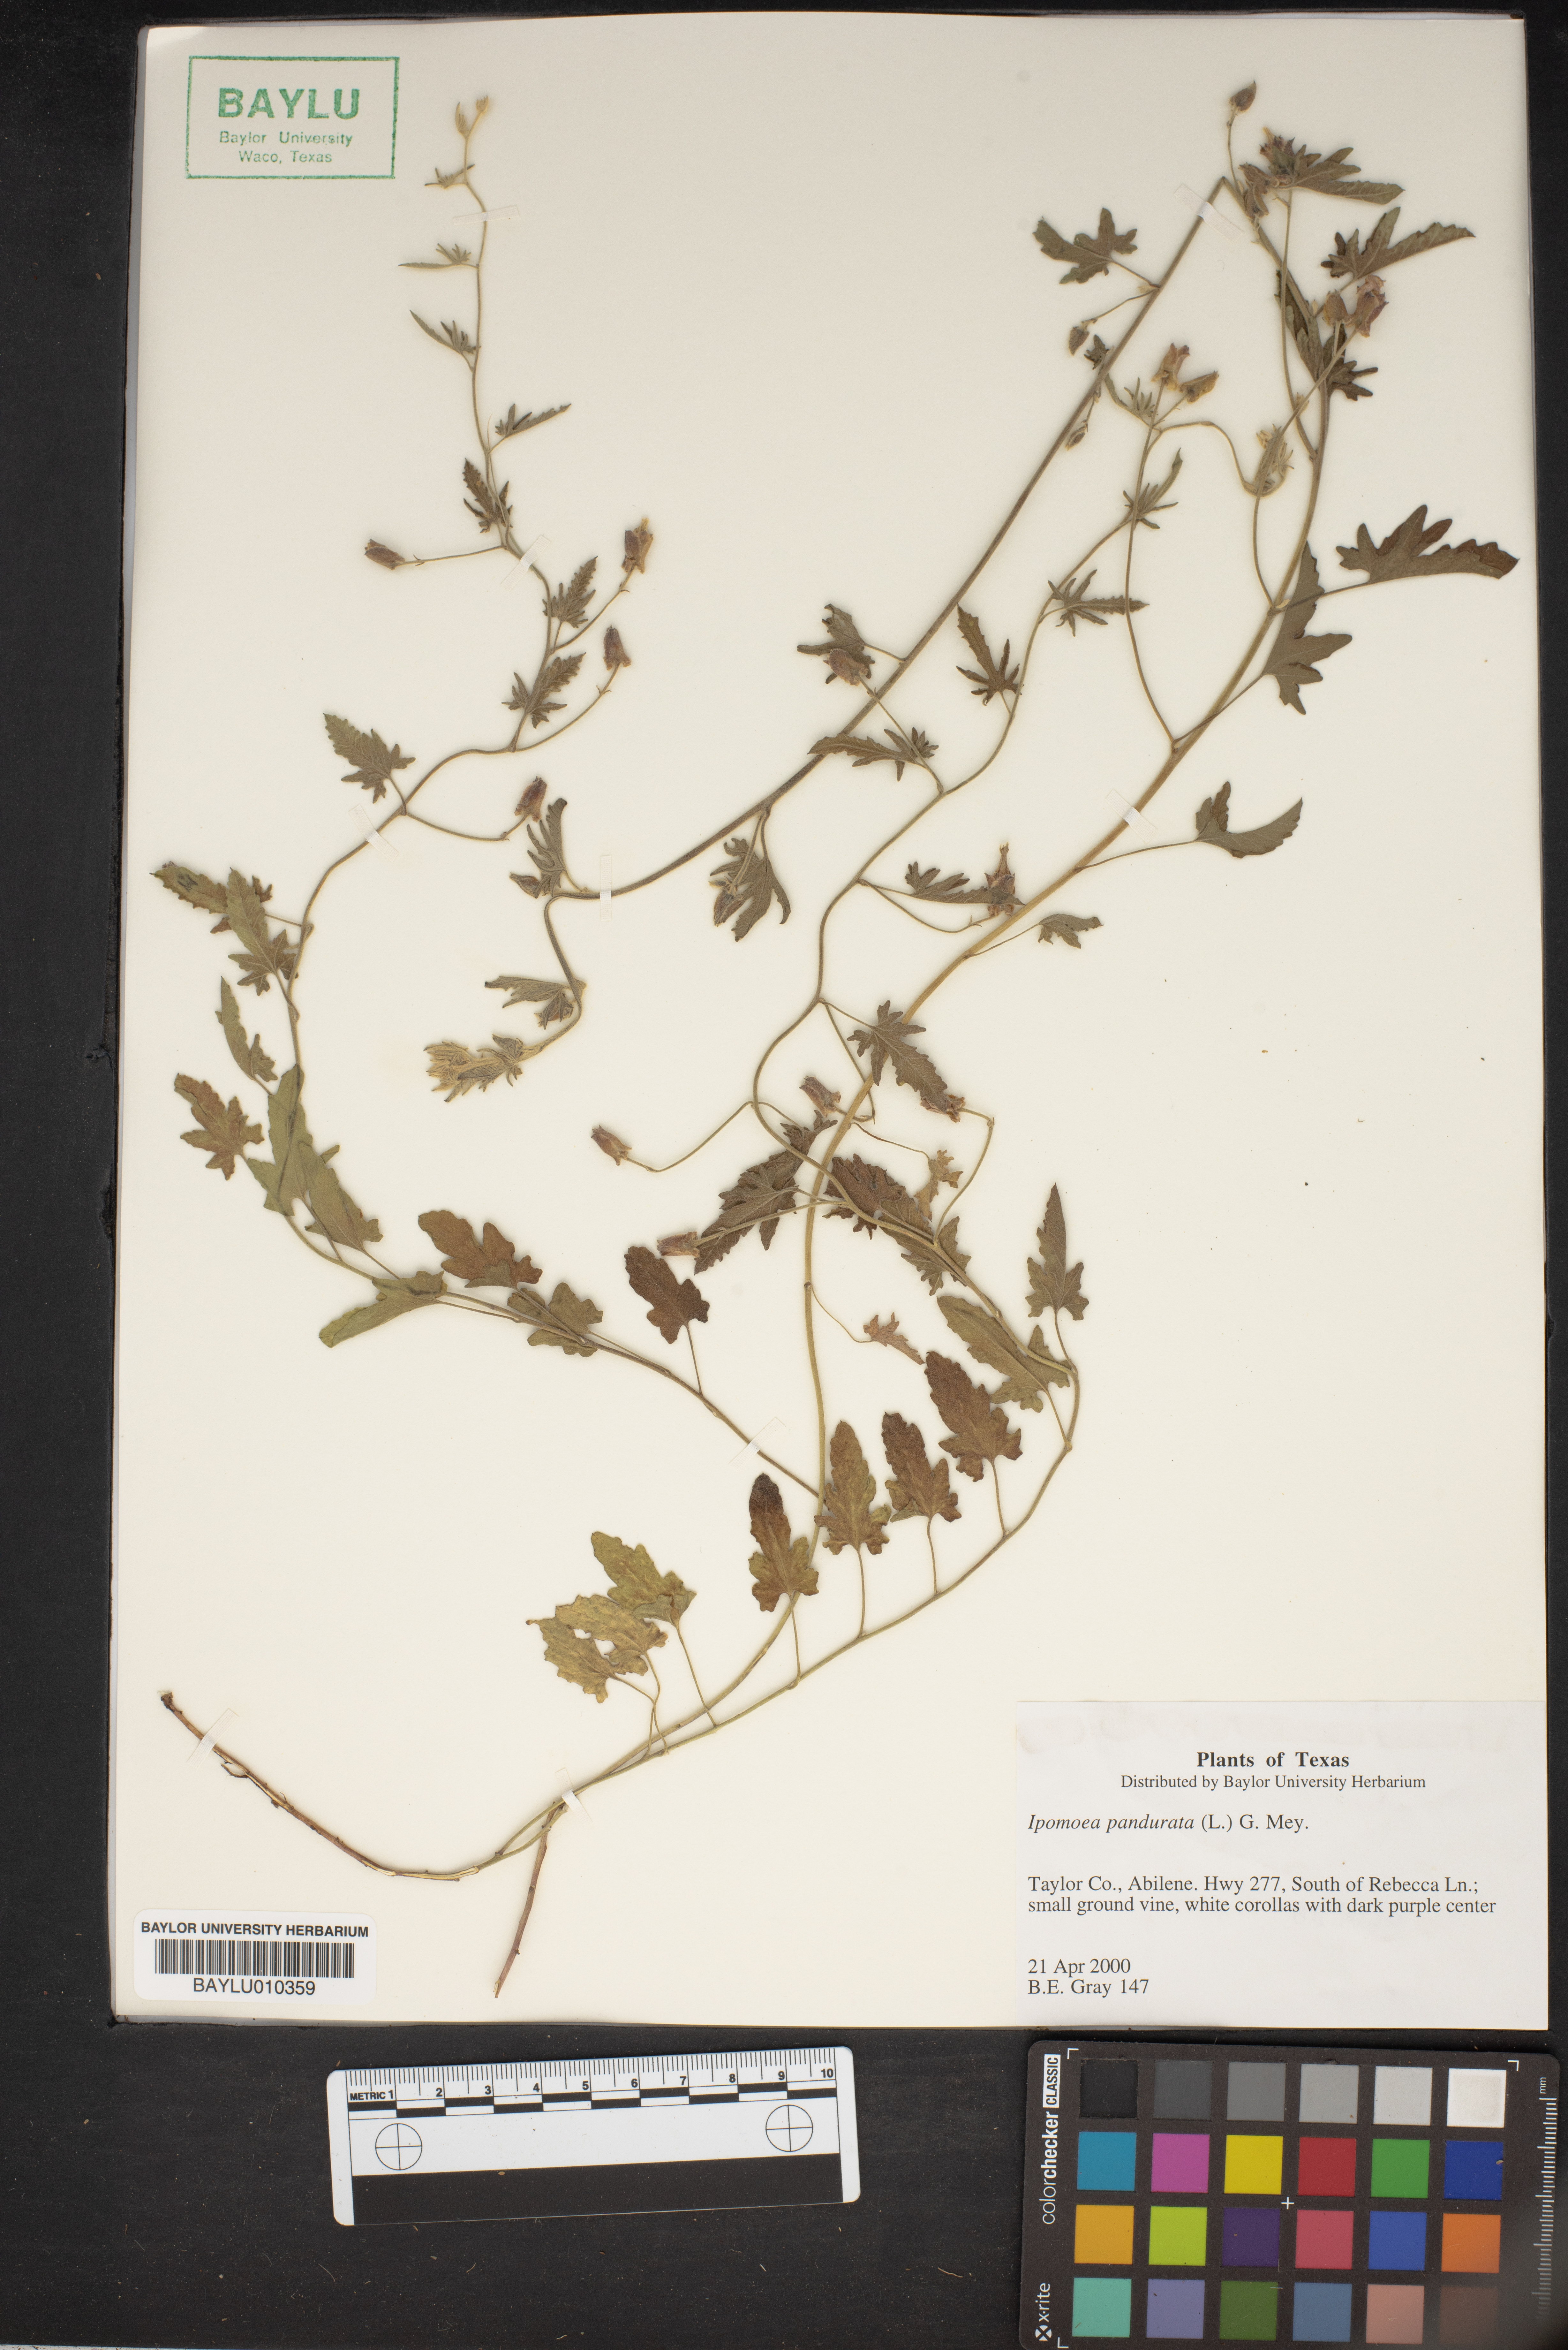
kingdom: Plantae
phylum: Tracheophyta
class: Magnoliopsida
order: Solanales
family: Convolvulaceae
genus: Ipomoea
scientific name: Ipomoea pandurata
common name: Man-of-the-earth
